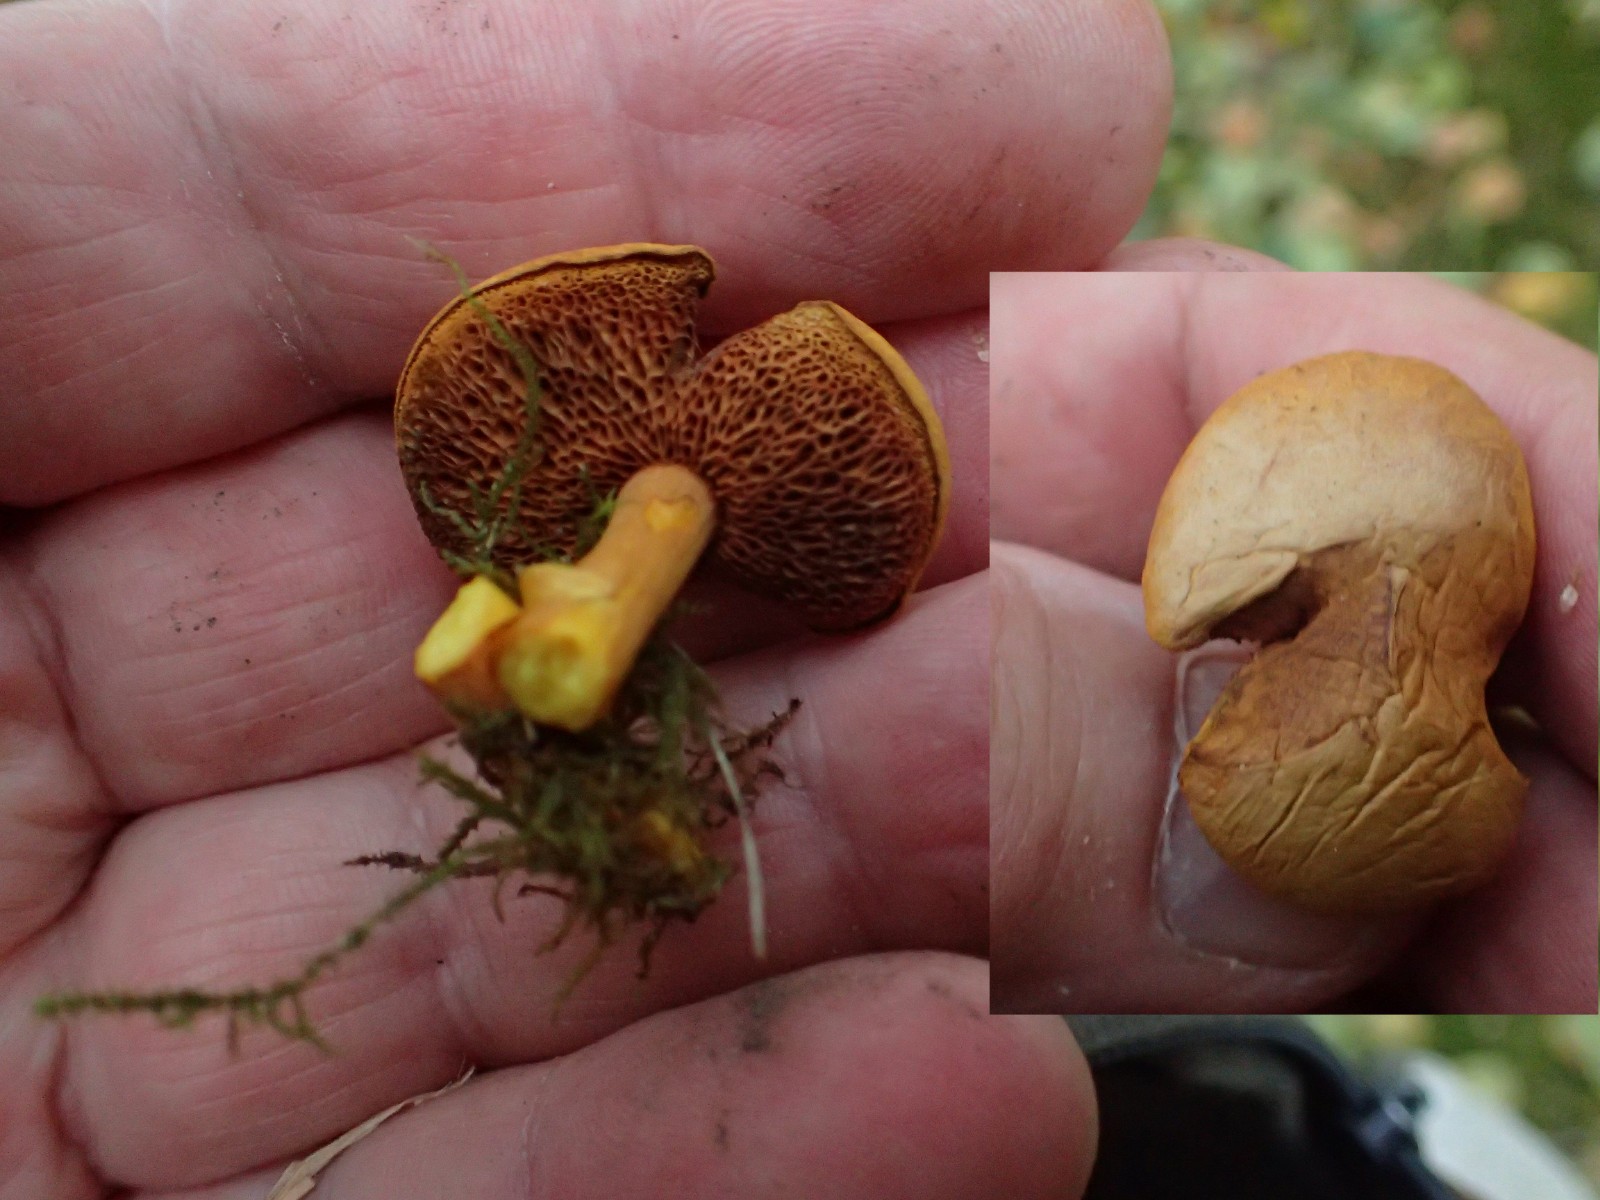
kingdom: Fungi
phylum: Basidiomycota
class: Agaricomycetes
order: Boletales
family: Boletaceae
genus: Chalciporus
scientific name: Chalciporus piperatus
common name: peberrørhat
